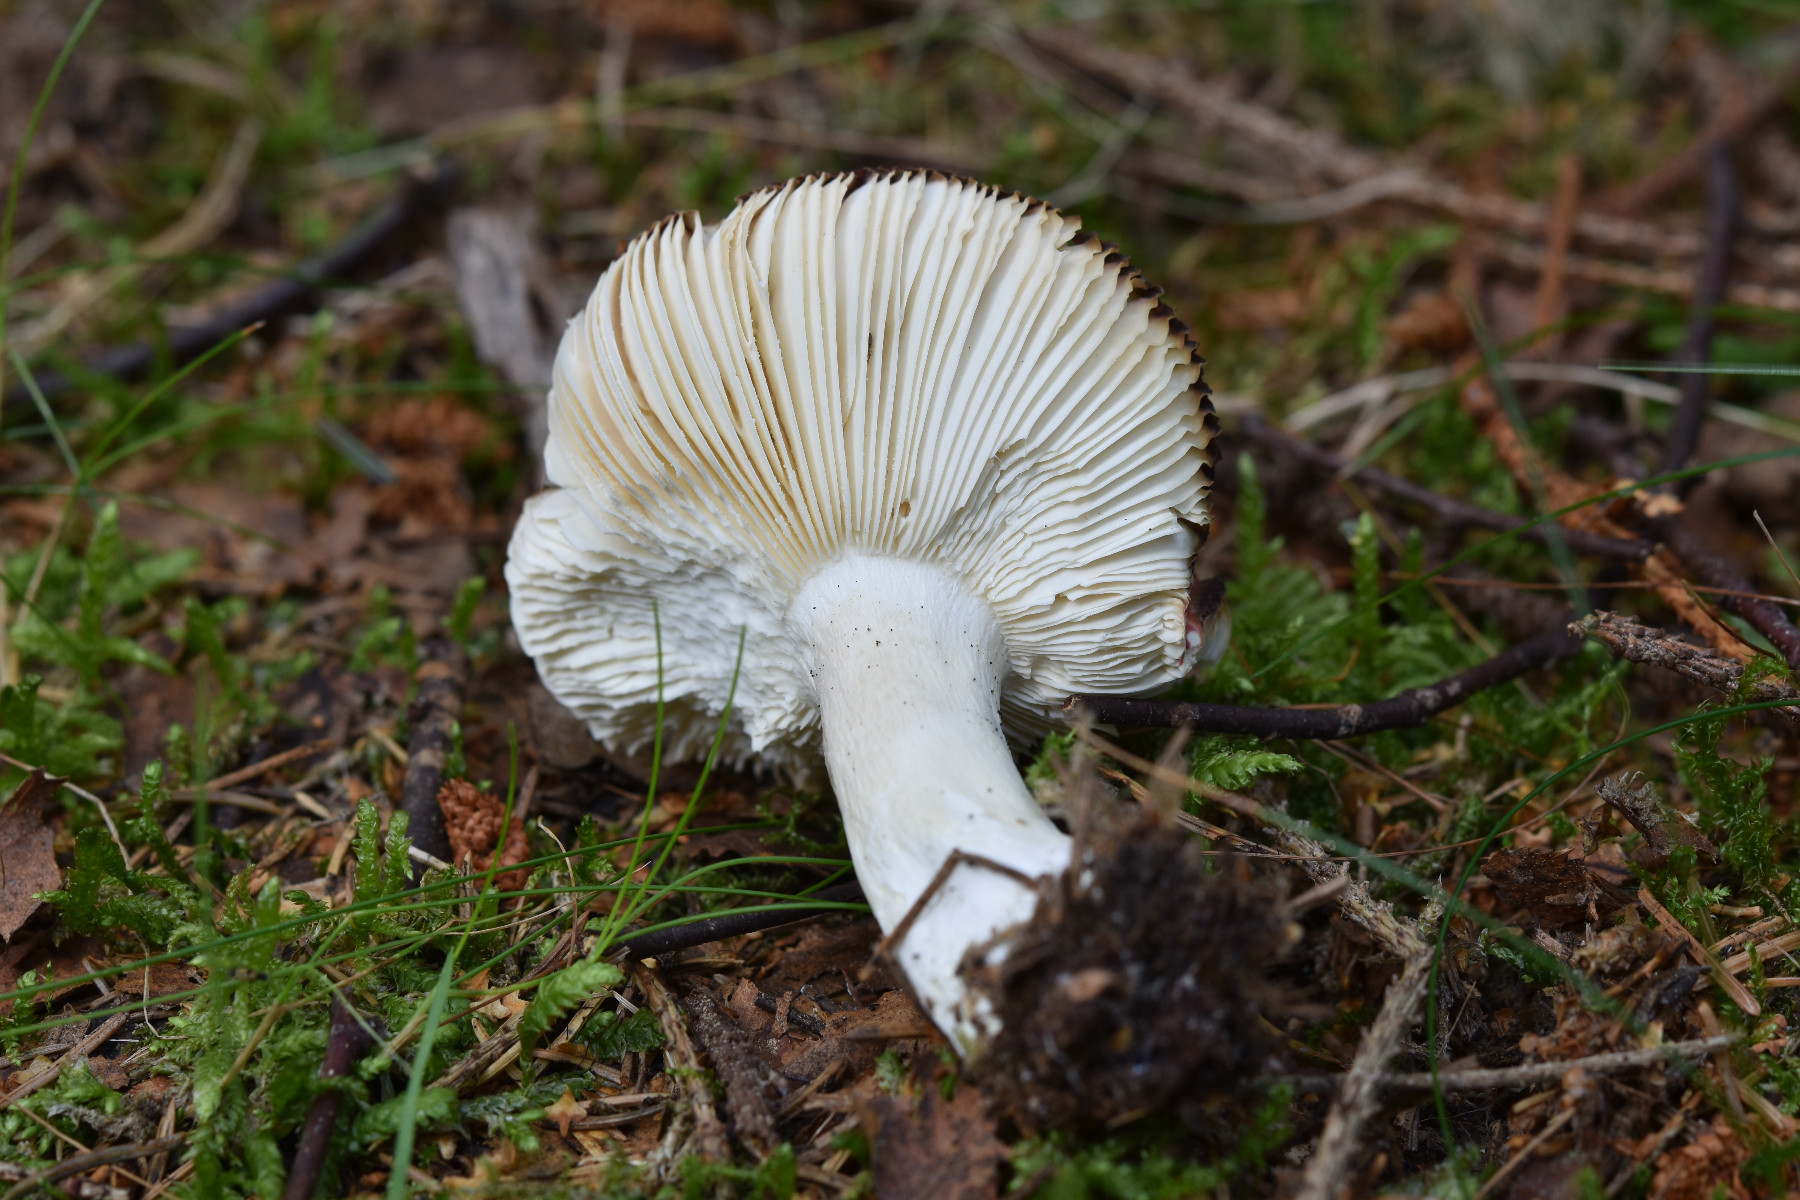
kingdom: Fungi
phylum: Basidiomycota
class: Agaricomycetes
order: Russulales
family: Russulaceae
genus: Russula
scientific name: Russula emetica
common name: stor gift-skørhat
